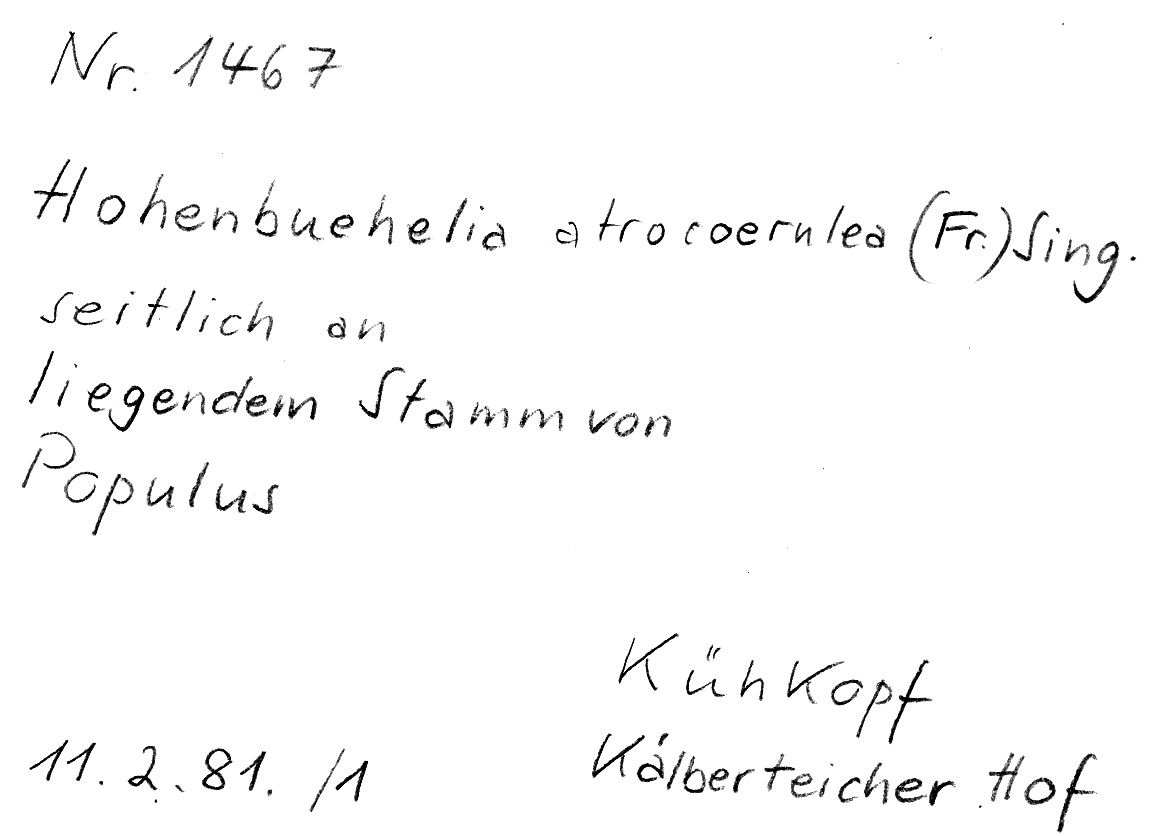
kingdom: Fungi
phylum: Basidiomycota
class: Agaricomycetes
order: Agaricales
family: Pleurotaceae
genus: Hohenbuehelia
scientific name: Hohenbuehelia atrocoerulea
